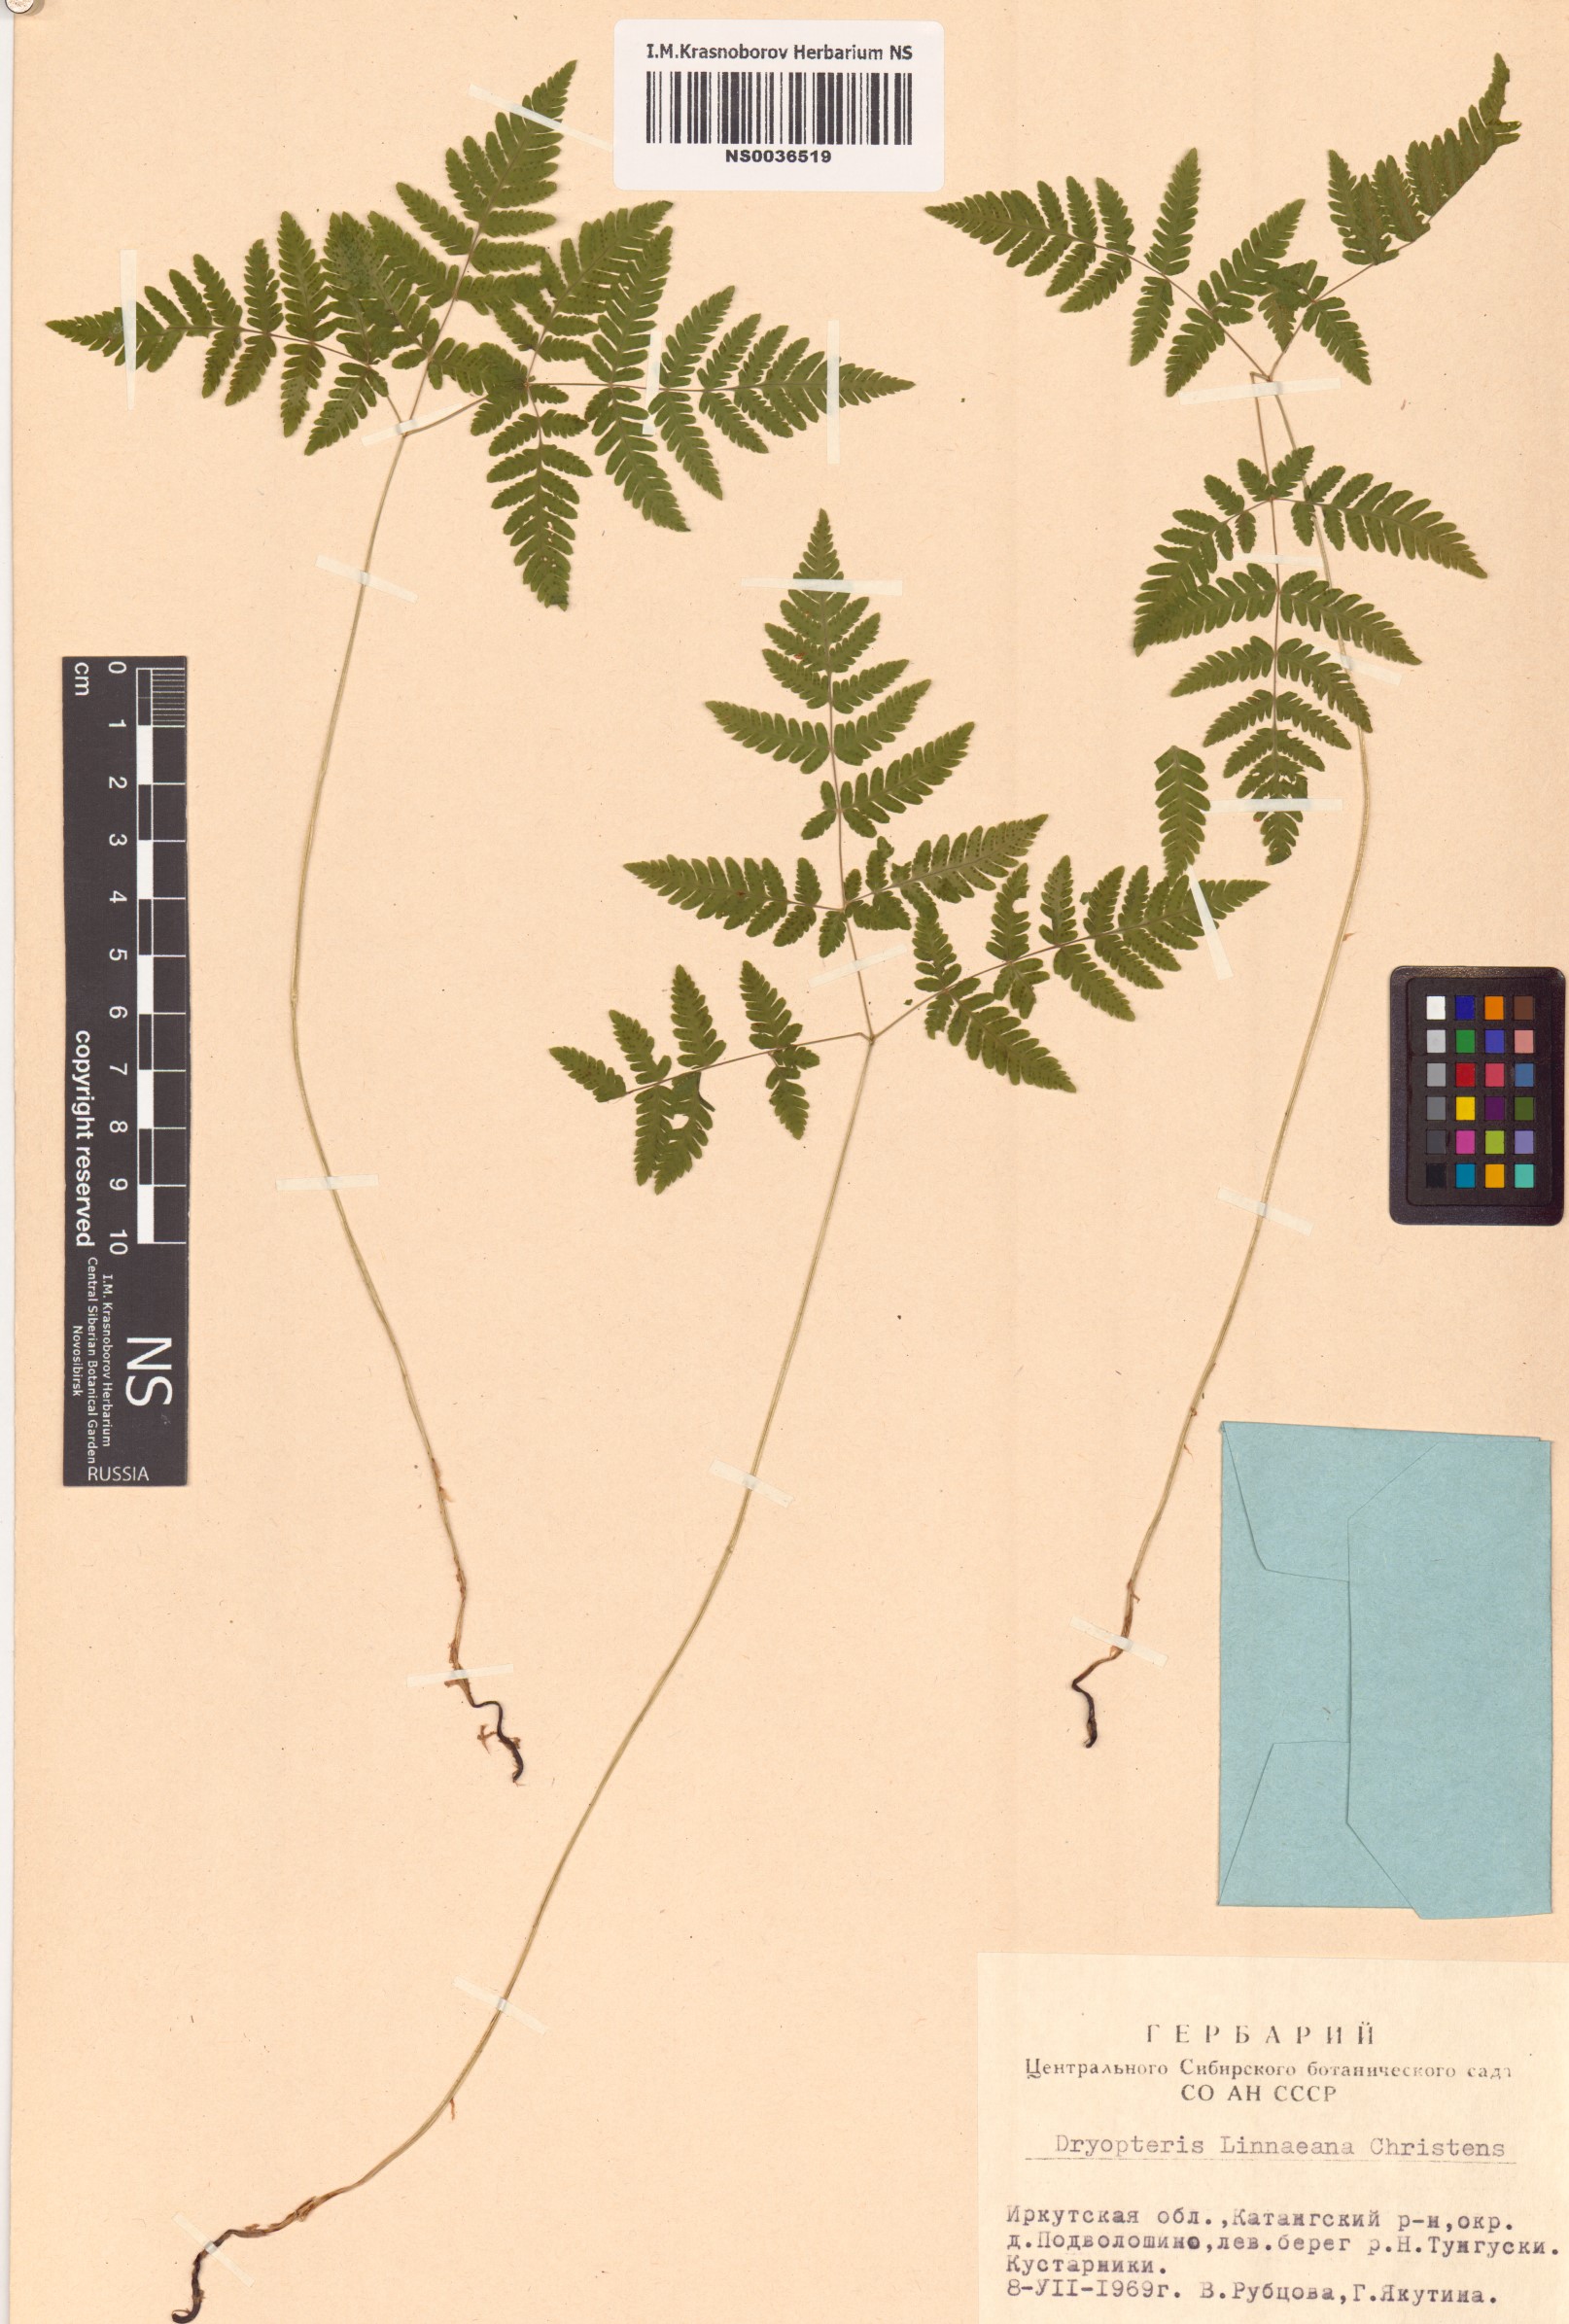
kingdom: Plantae
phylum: Tracheophyta
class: Polypodiopsida
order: Polypodiales
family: Cystopteridaceae
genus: Gymnocarpium
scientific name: Gymnocarpium dryopteris
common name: Oak fern
